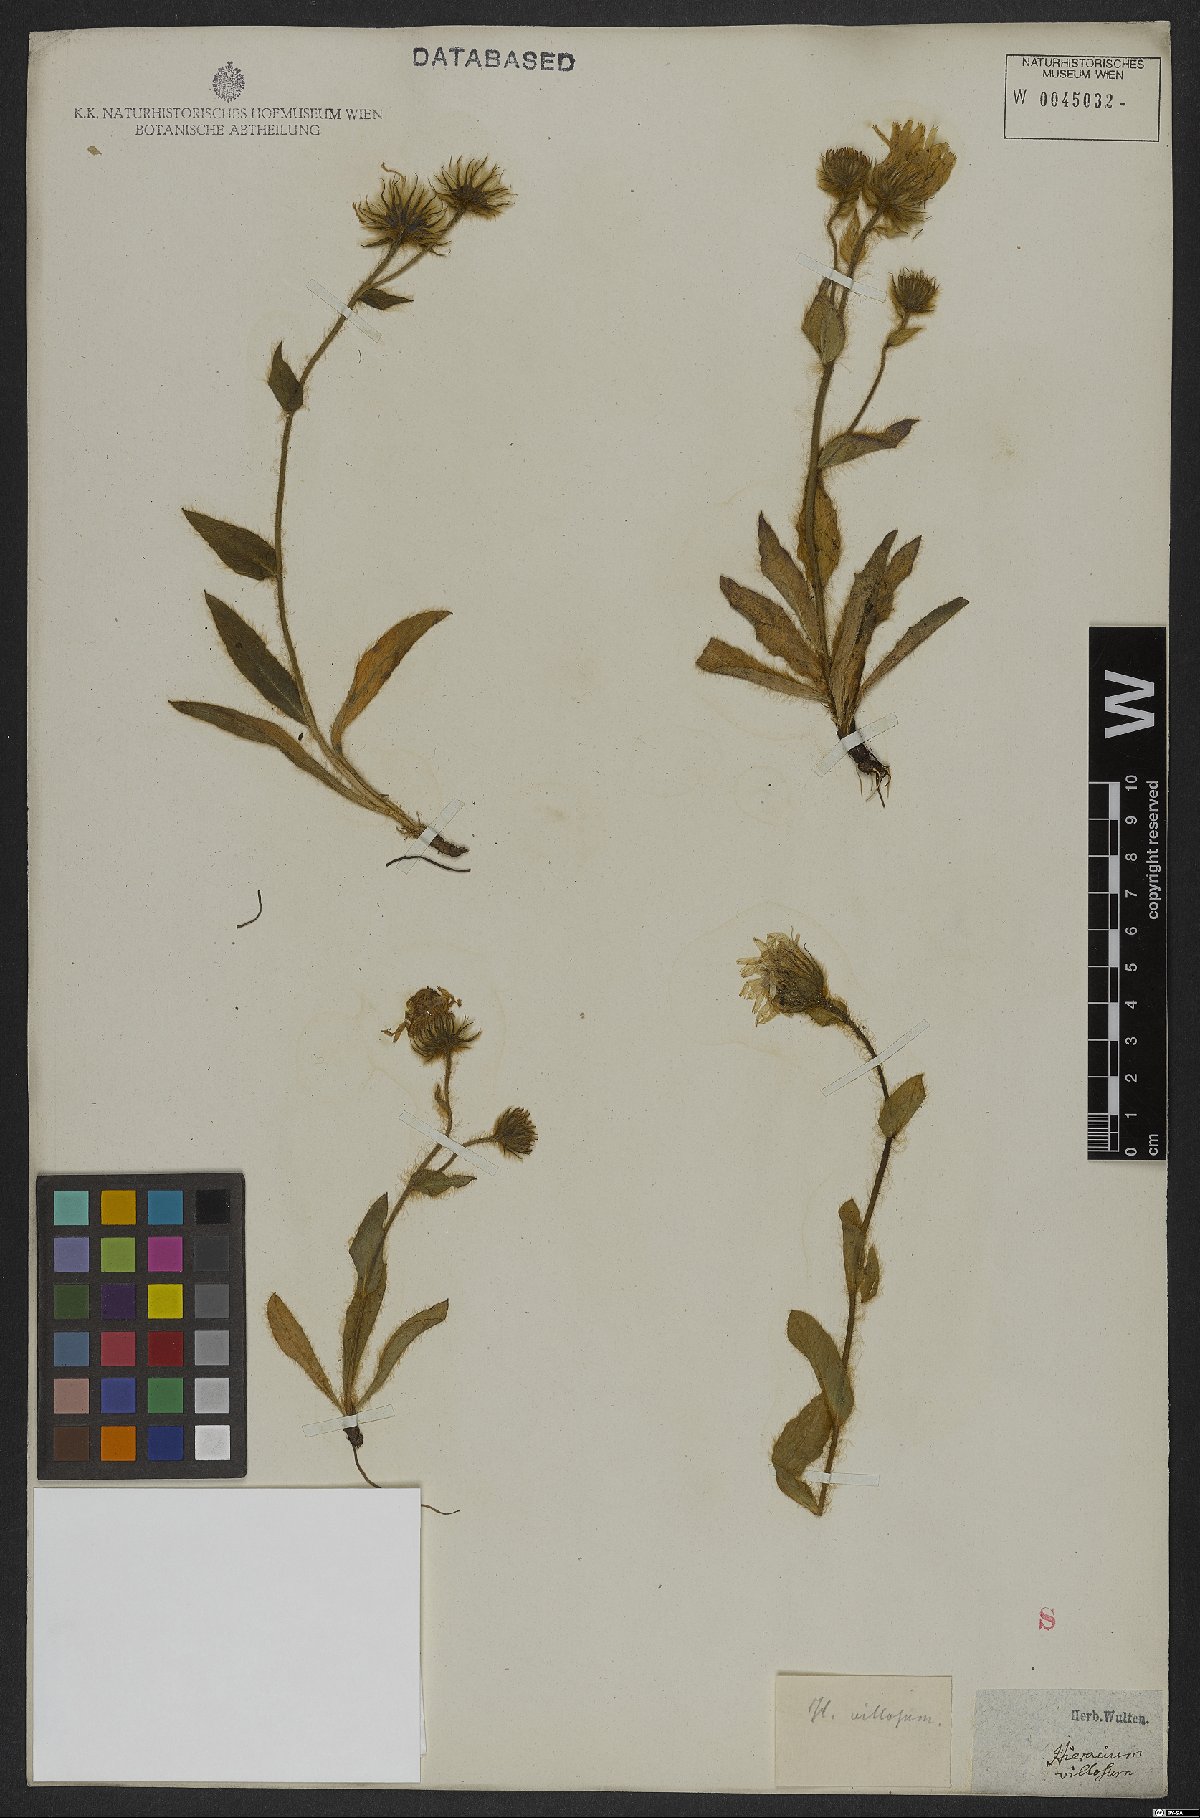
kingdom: Plantae
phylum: Tracheophyta
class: Magnoliopsida
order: Asterales
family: Asteraceae
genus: Hieracium
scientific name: Hieracium villosum
